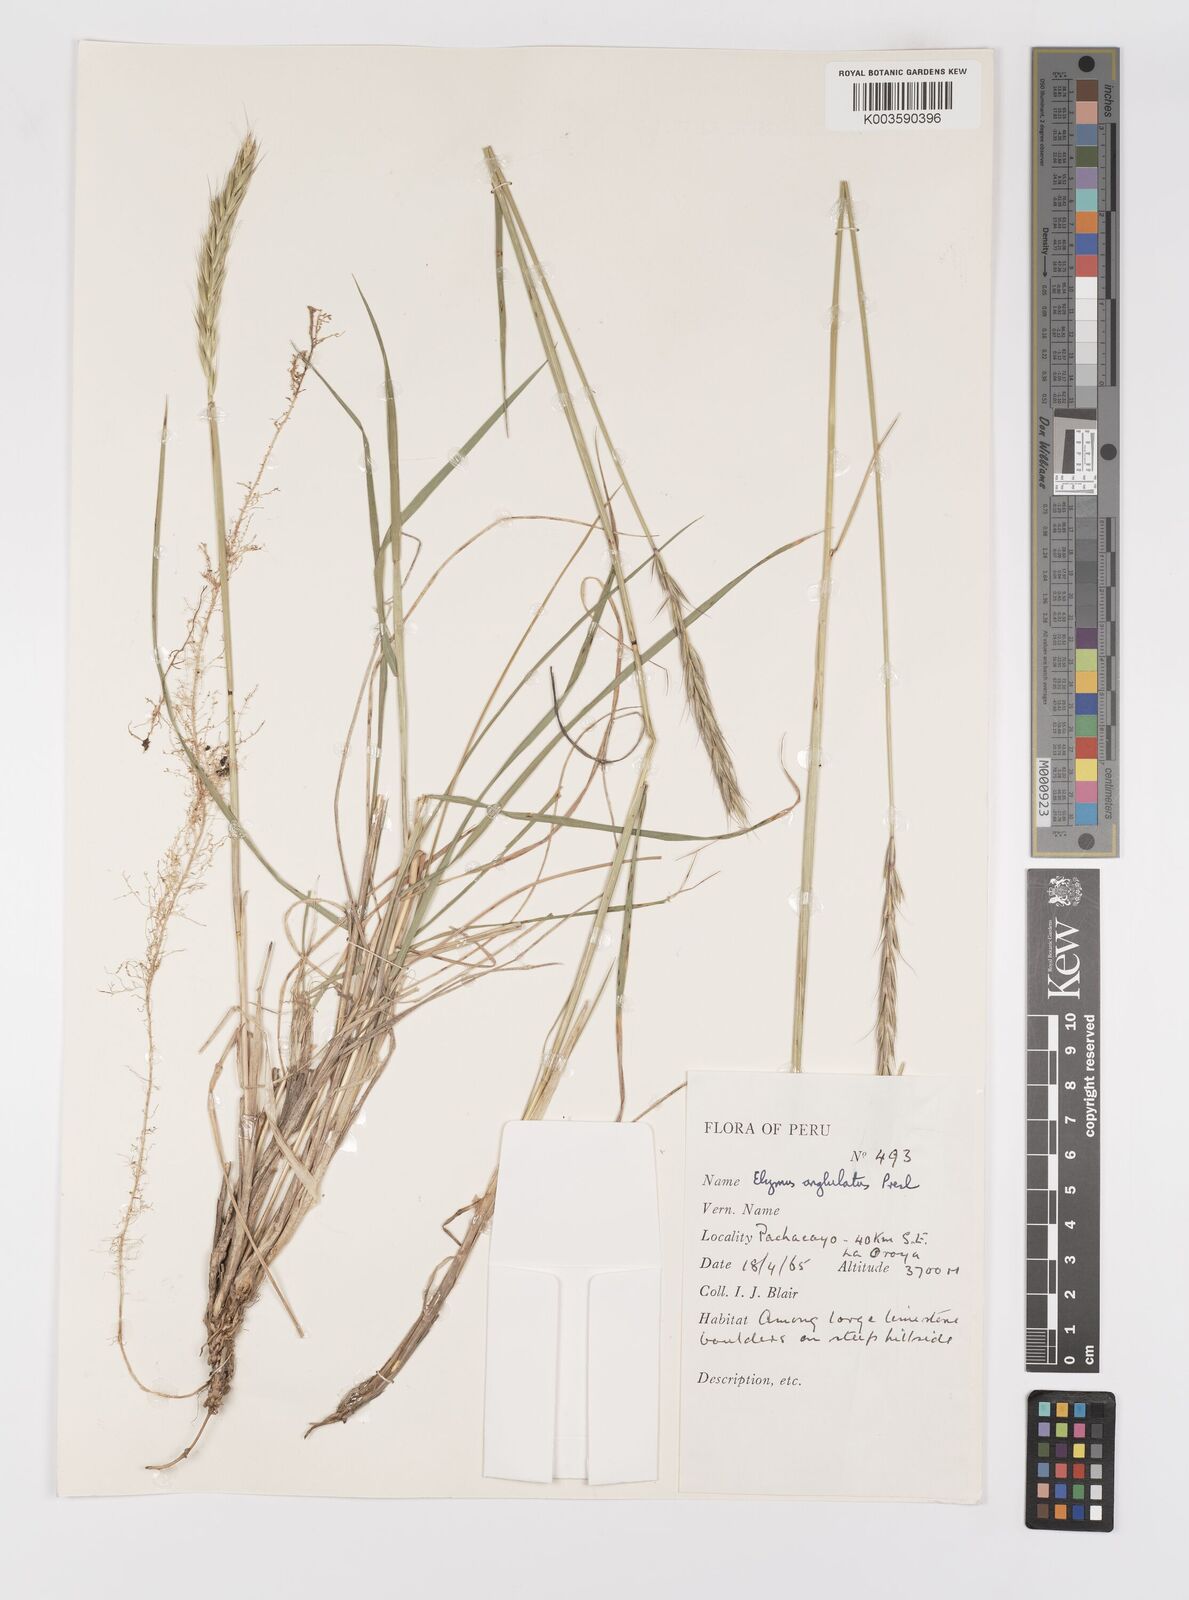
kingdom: Plantae
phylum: Tracheophyta
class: Liliopsida
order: Poales
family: Poaceae
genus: Elymus
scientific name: Elymus angulatus
